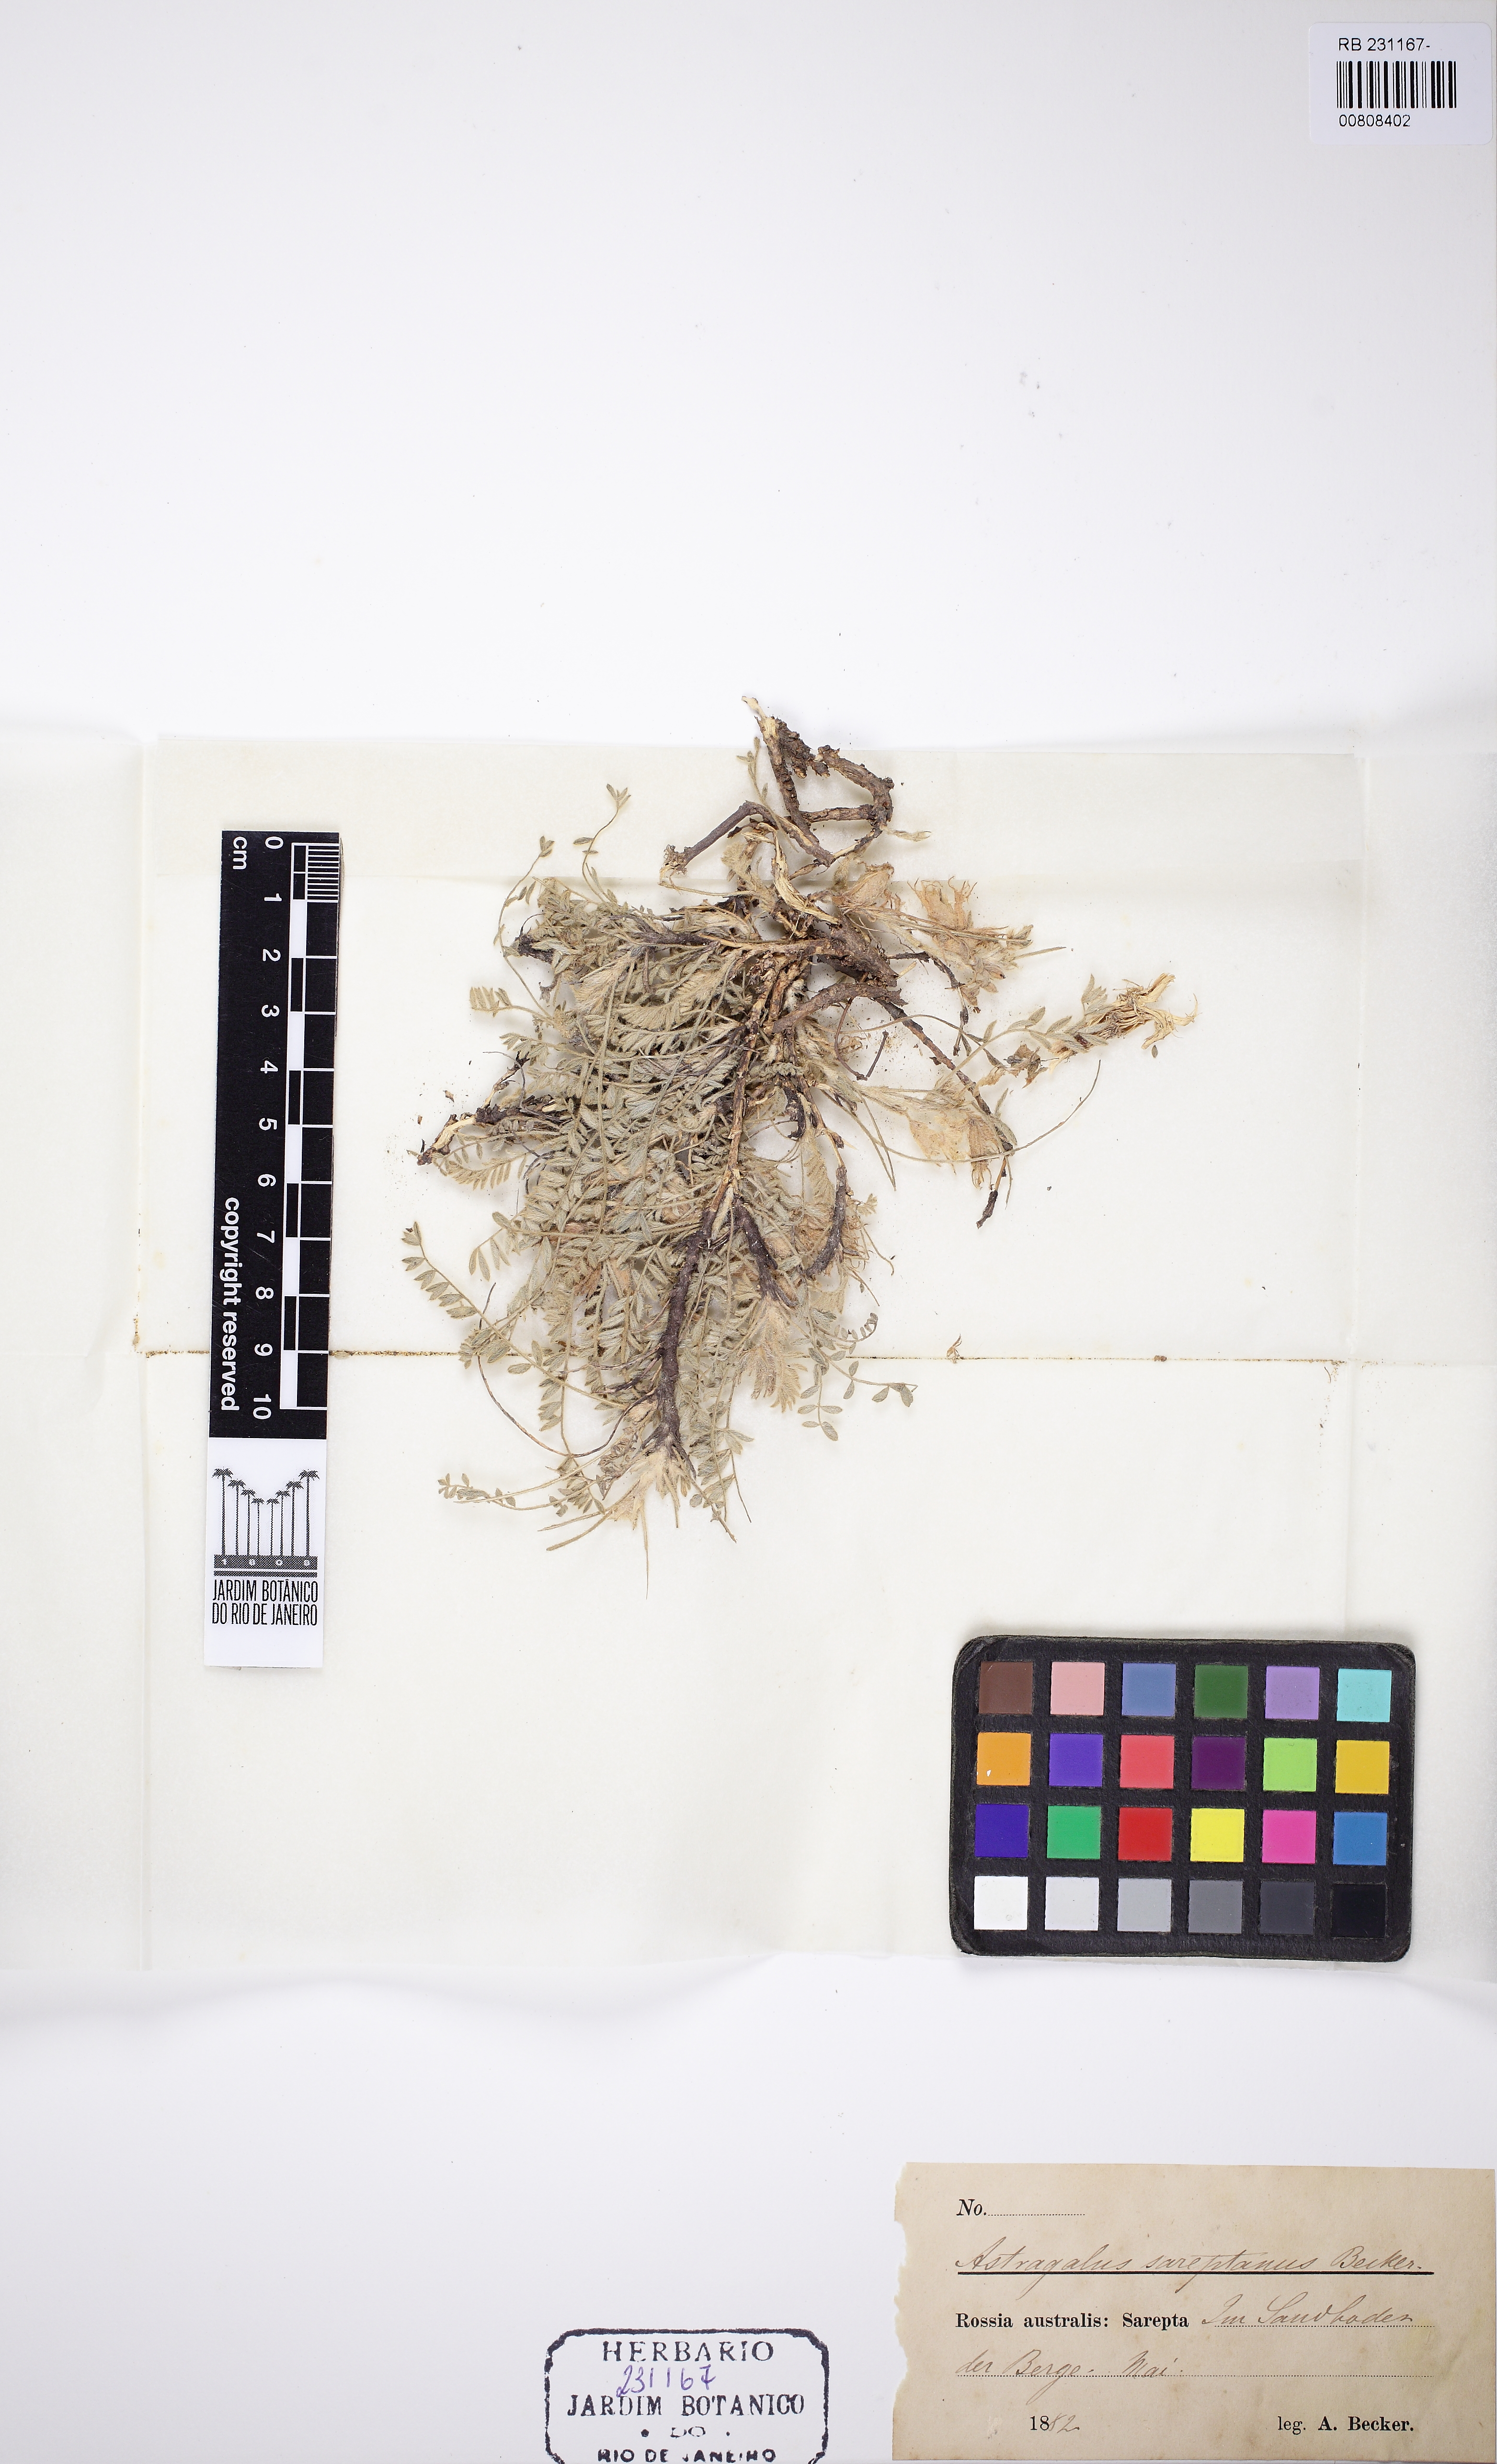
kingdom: Plantae
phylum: Tracheophyta
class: Magnoliopsida
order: Fabales
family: Fabaceae
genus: Astragalus
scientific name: Astragalus rupifragus
